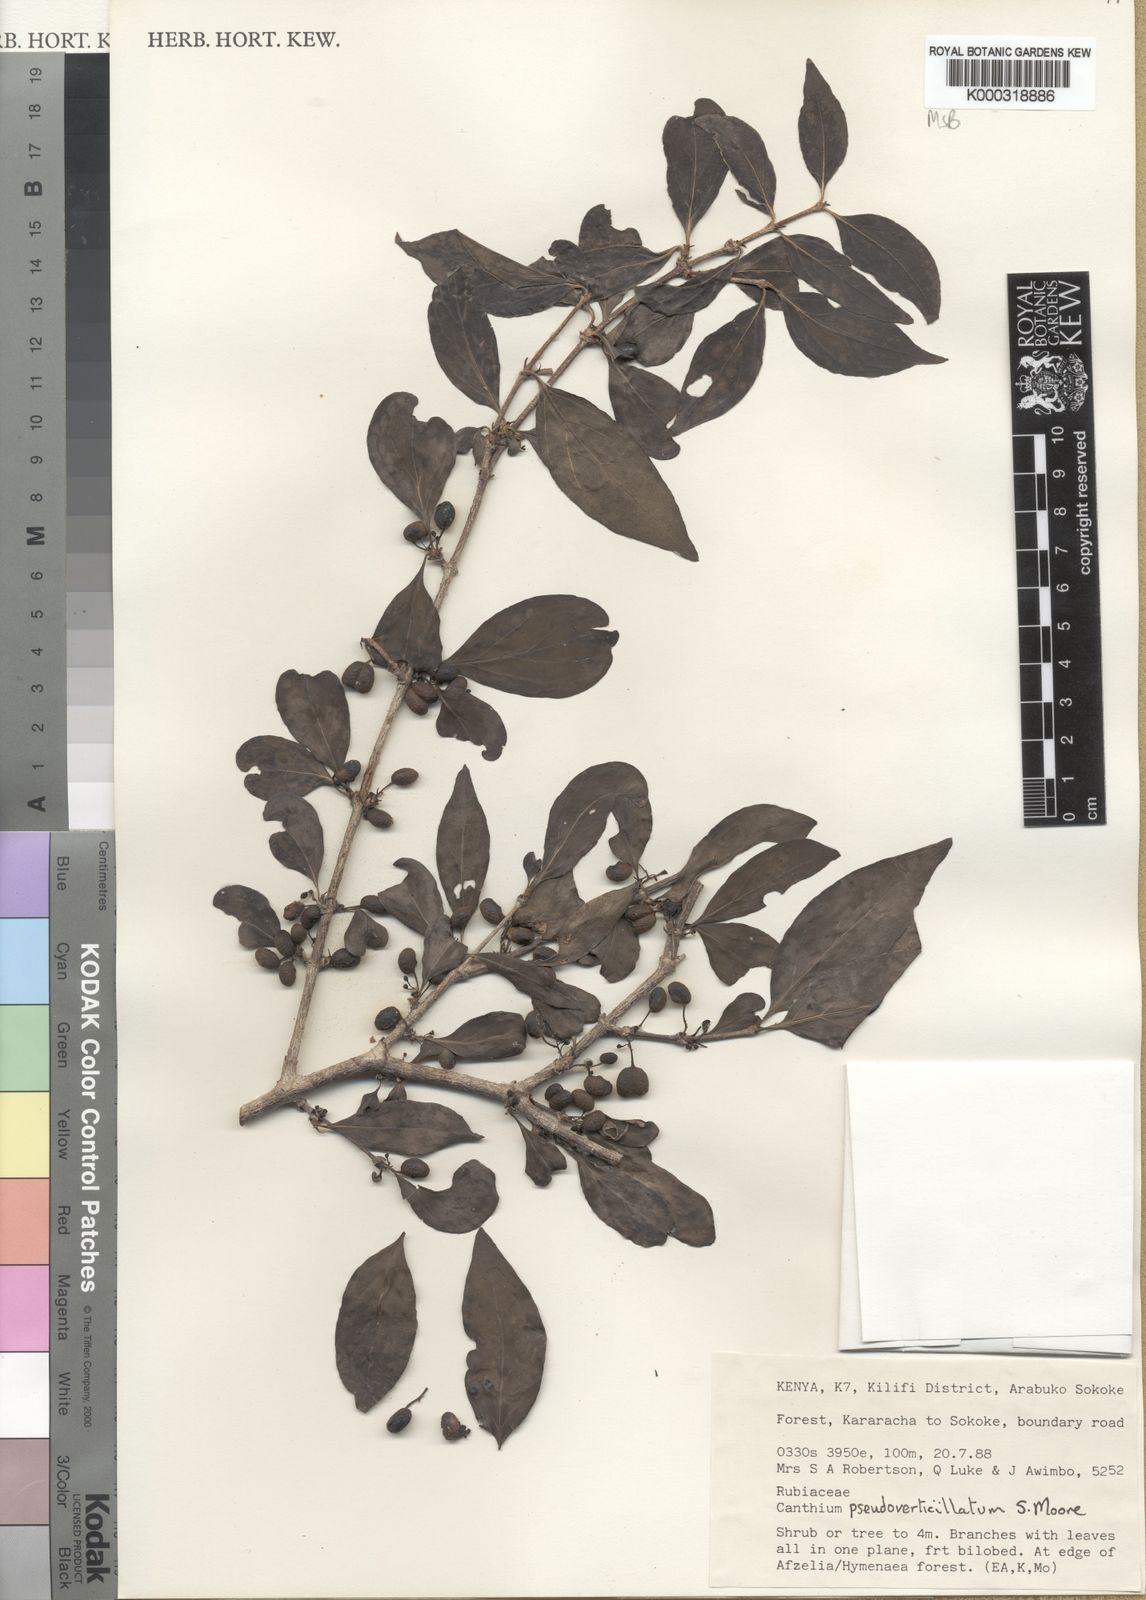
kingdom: Plantae
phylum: Tracheophyta
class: Magnoliopsida
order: Gentianales
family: Rubiaceae
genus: Afrocanthium
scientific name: Afrocanthium pseudoverticillatum
